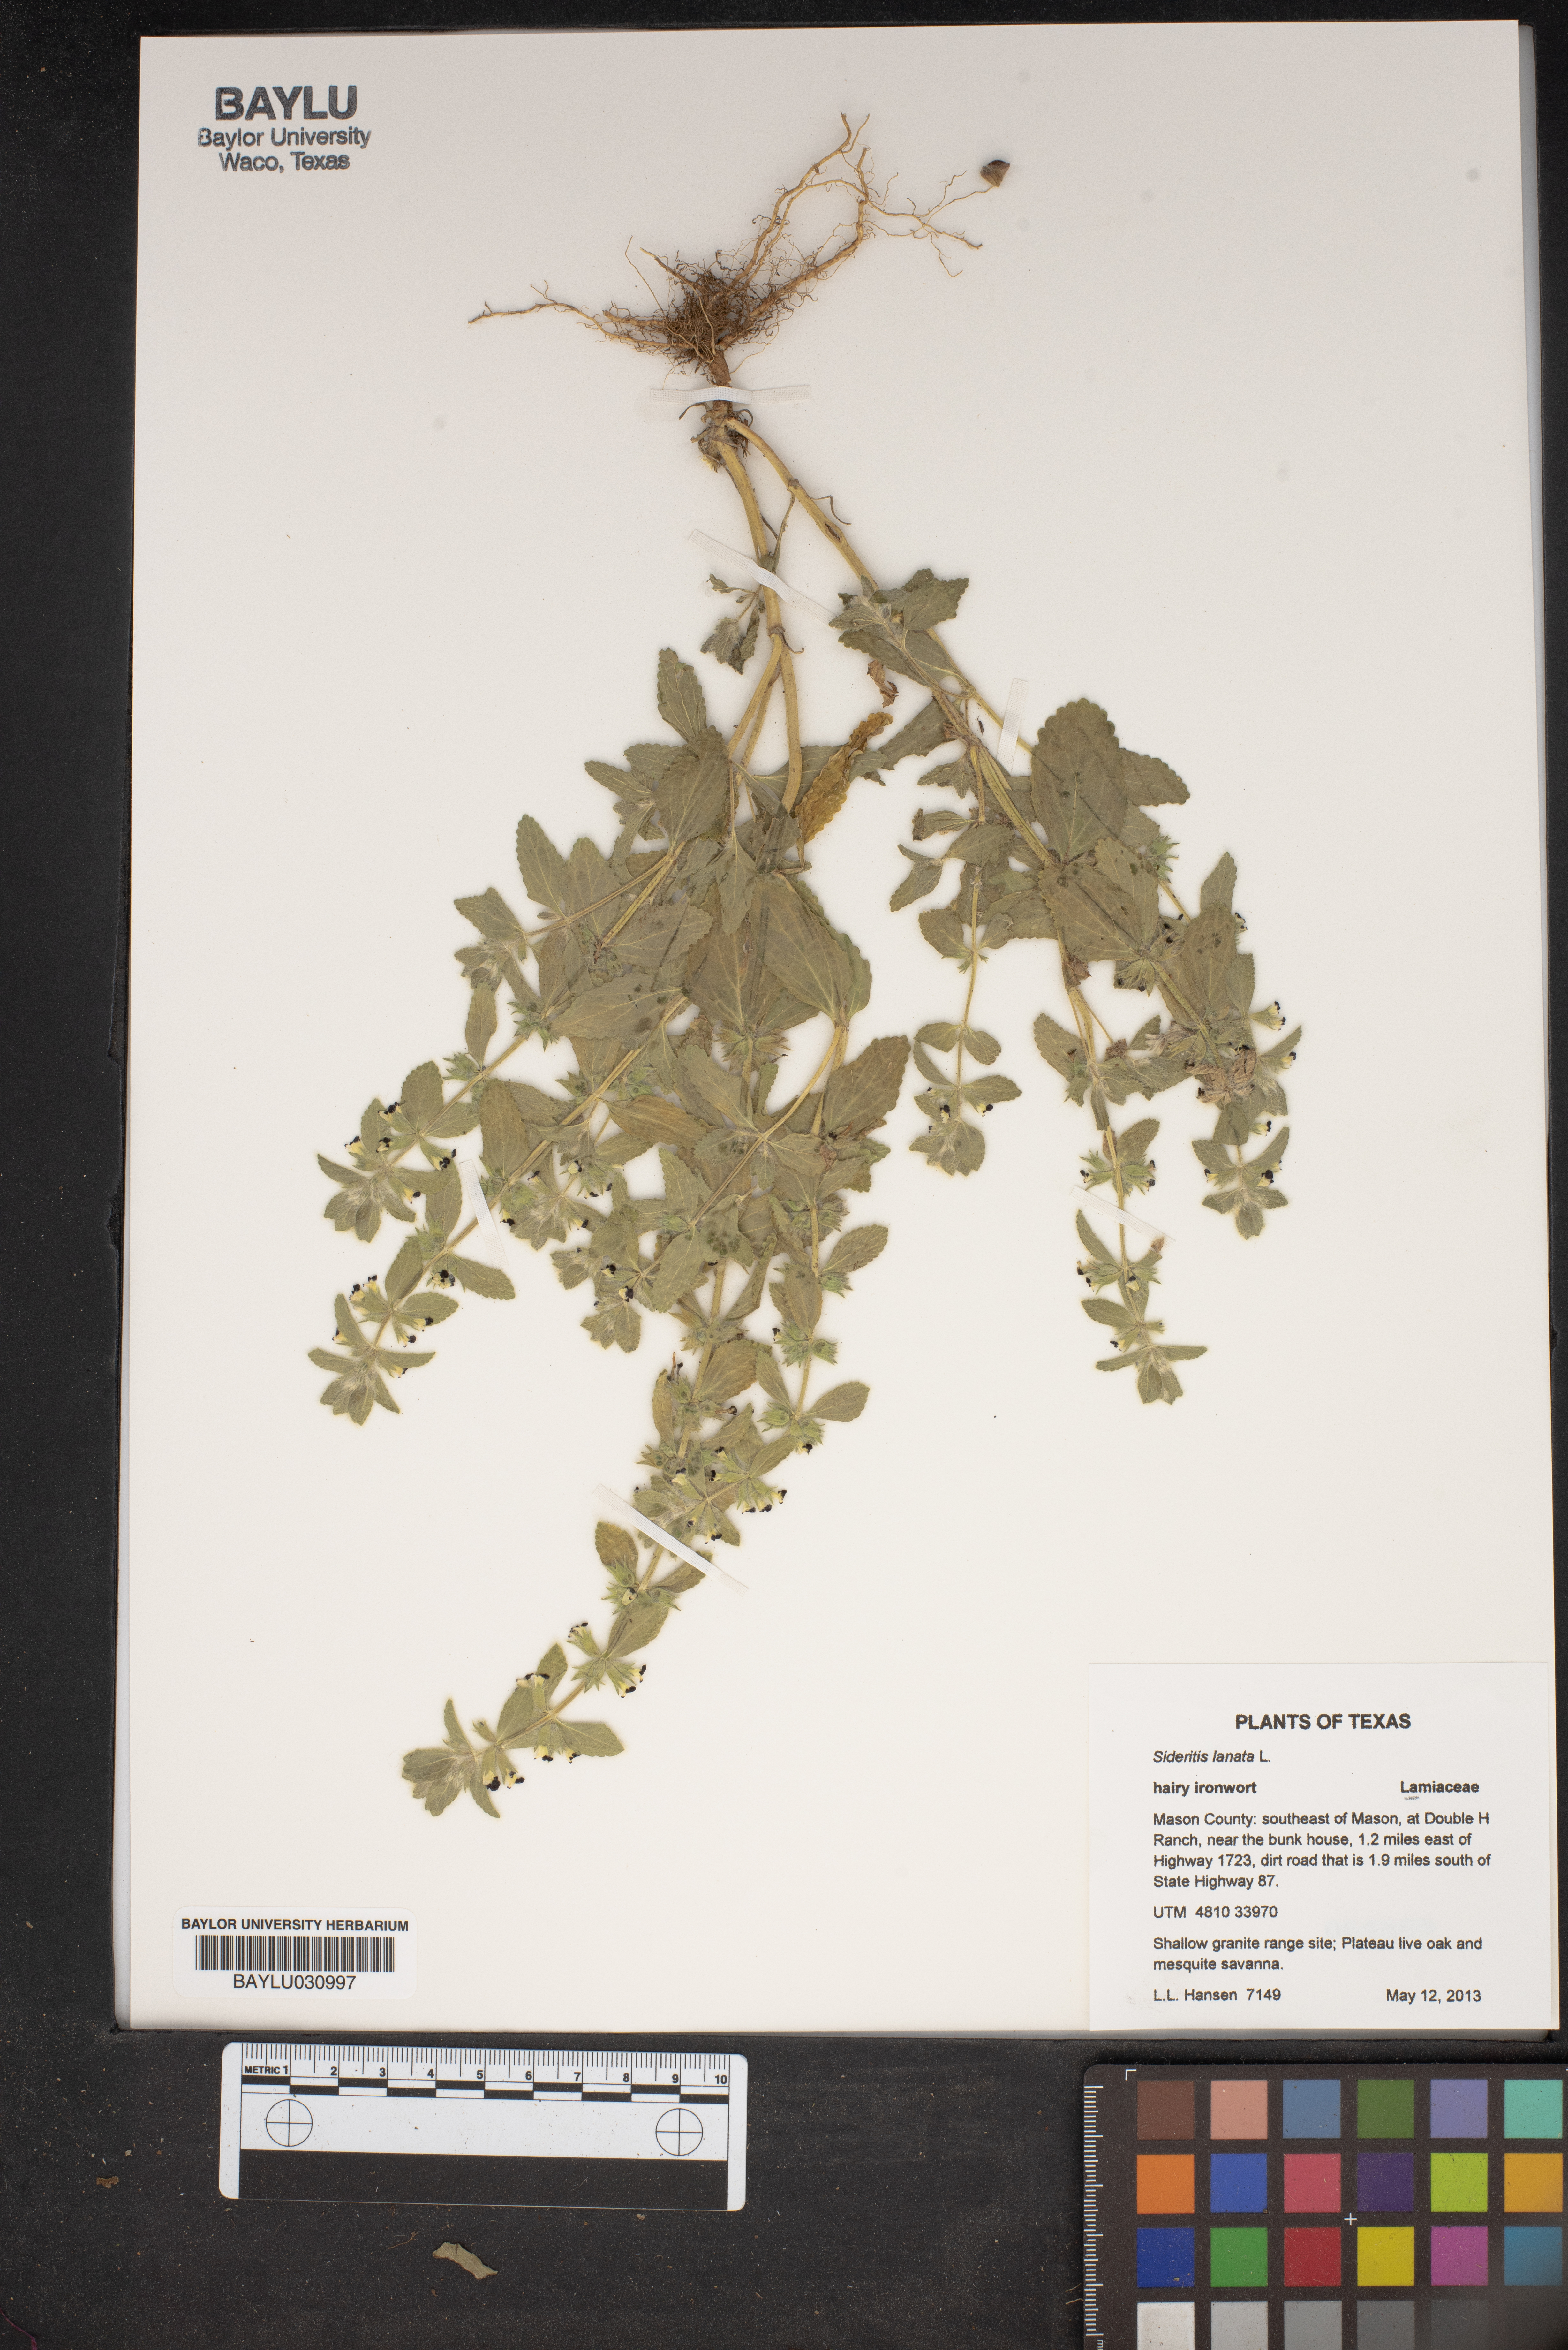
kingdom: Plantae
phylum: Tracheophyta
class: Magnoliopsida
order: Lamiales
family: Lamiaceae
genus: Sideritis
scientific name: Sideritis lanata
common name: Hairy ironwort
